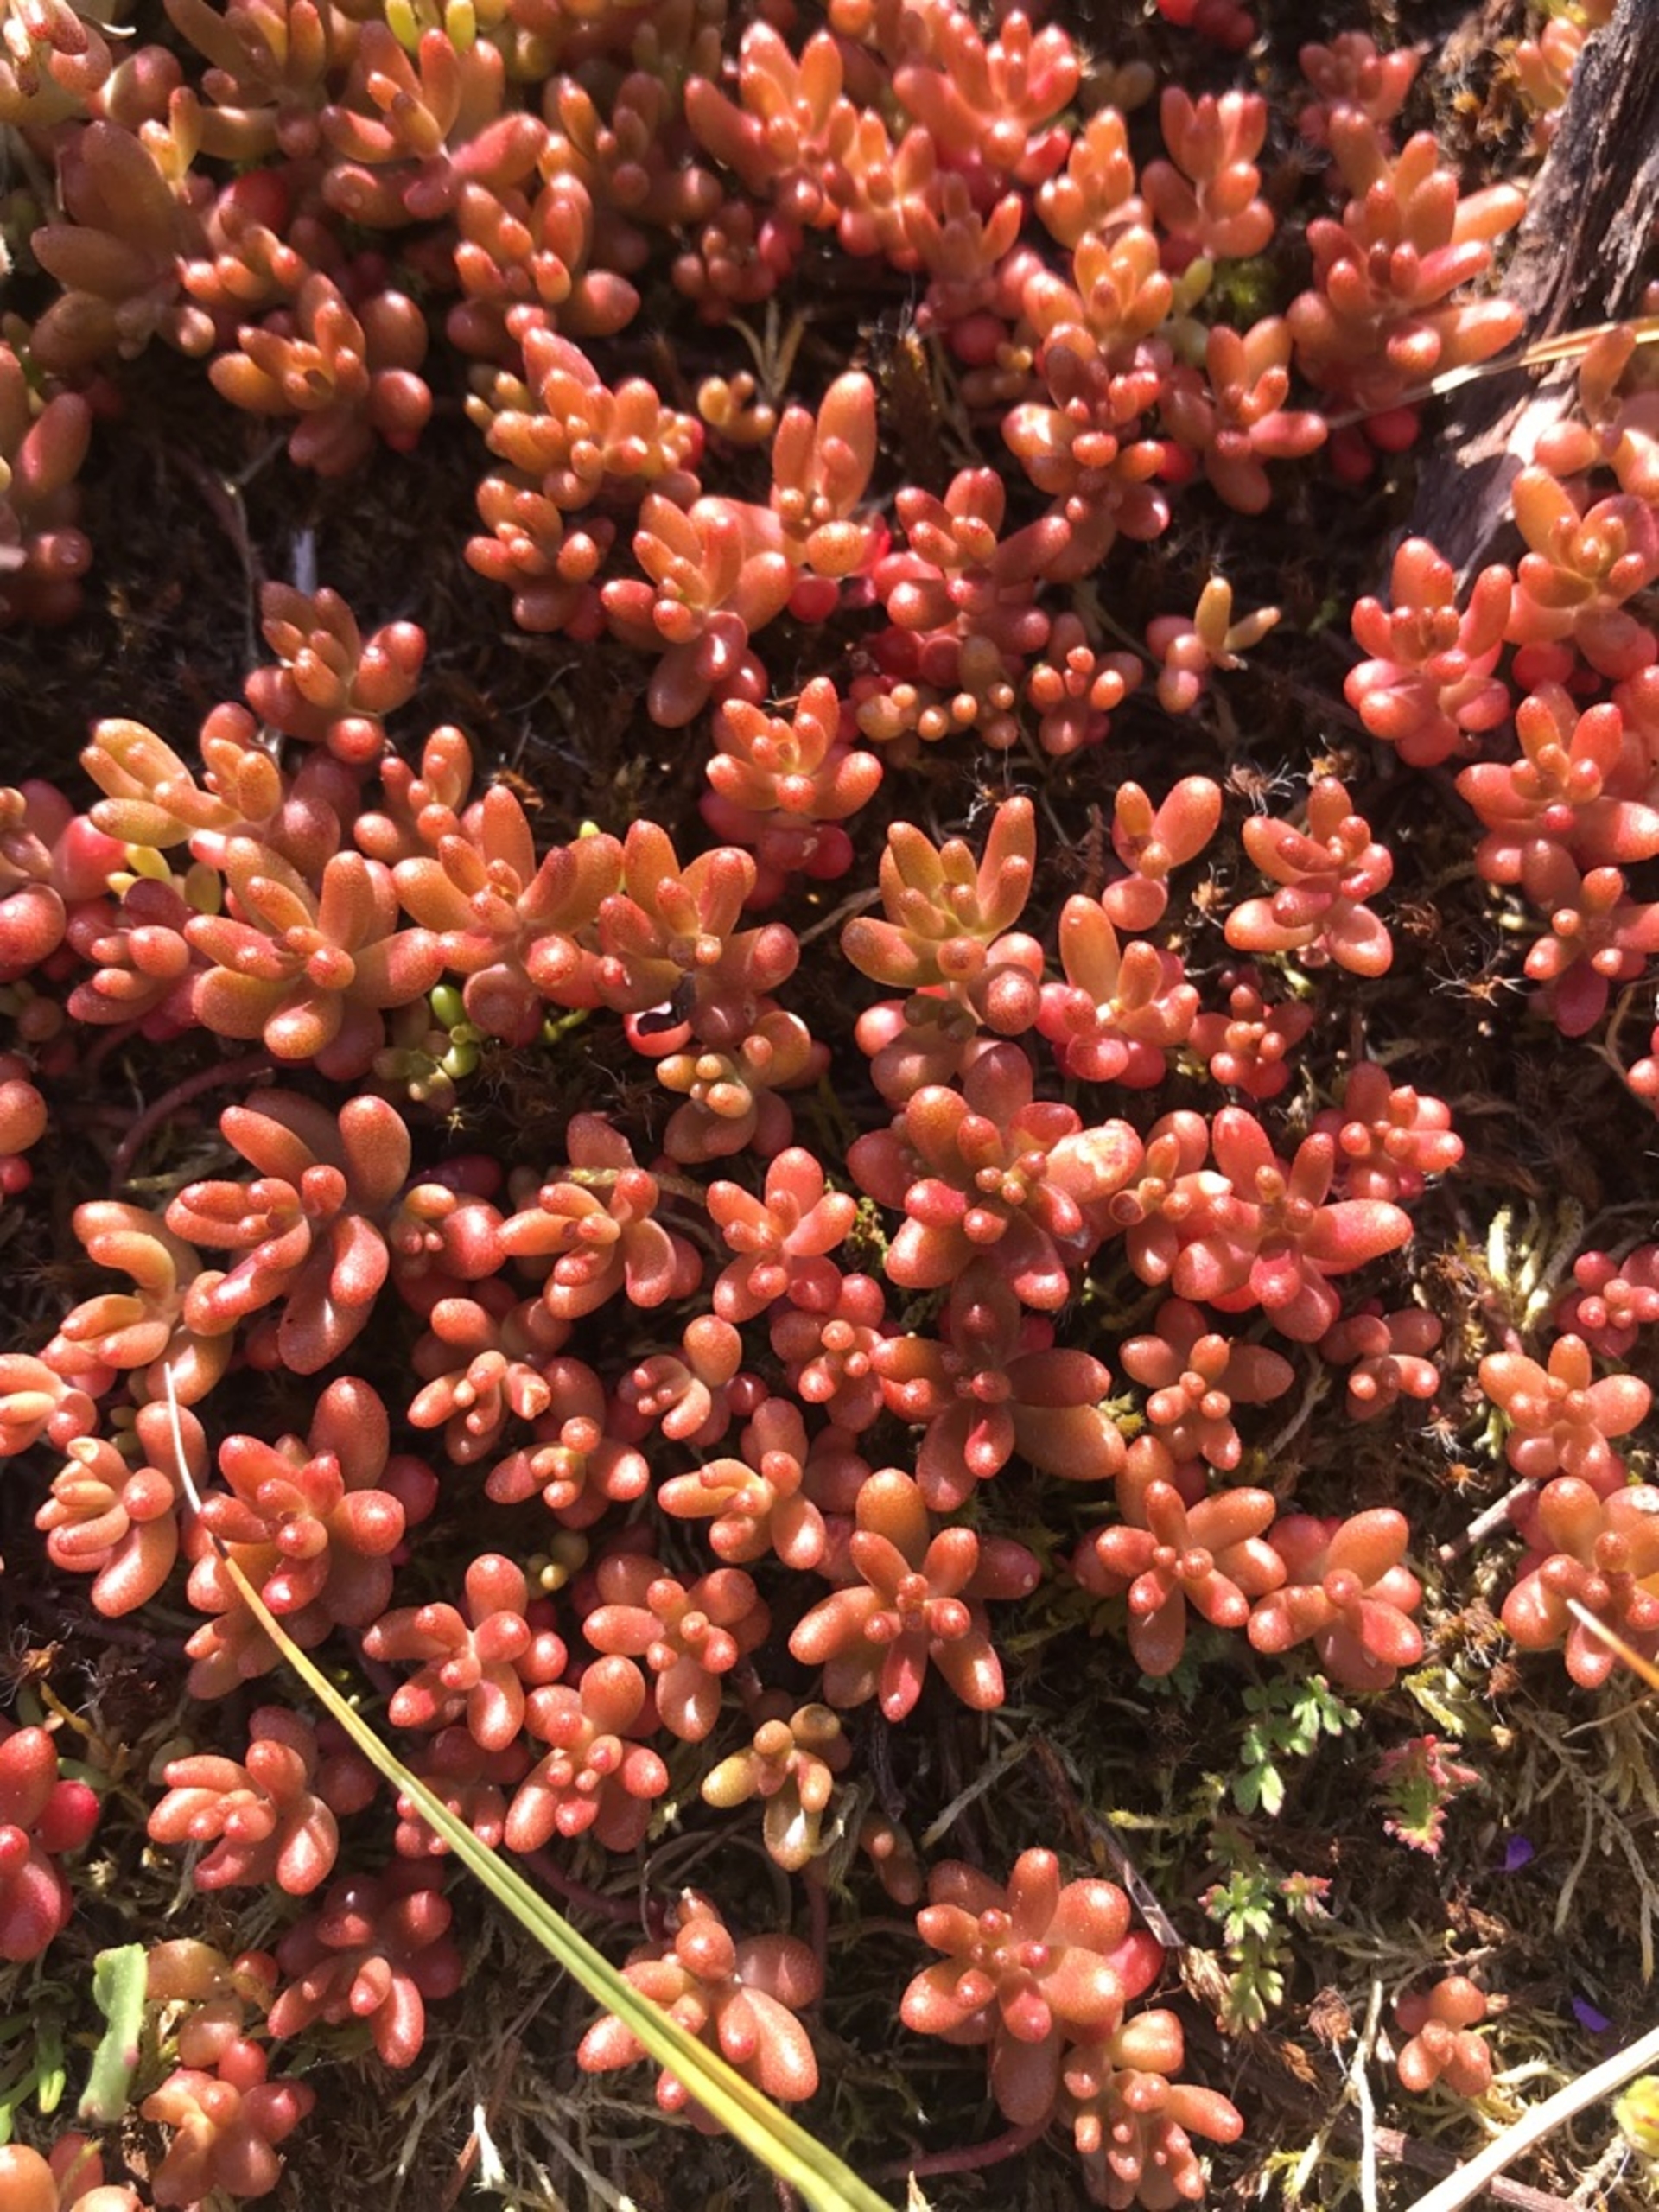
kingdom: Plantae
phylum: Tracheophyta
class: Magnoliopsida
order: Saxifragales
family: Crassulaceae
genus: Sedum
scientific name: Sedum album
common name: Hvid stenurt
